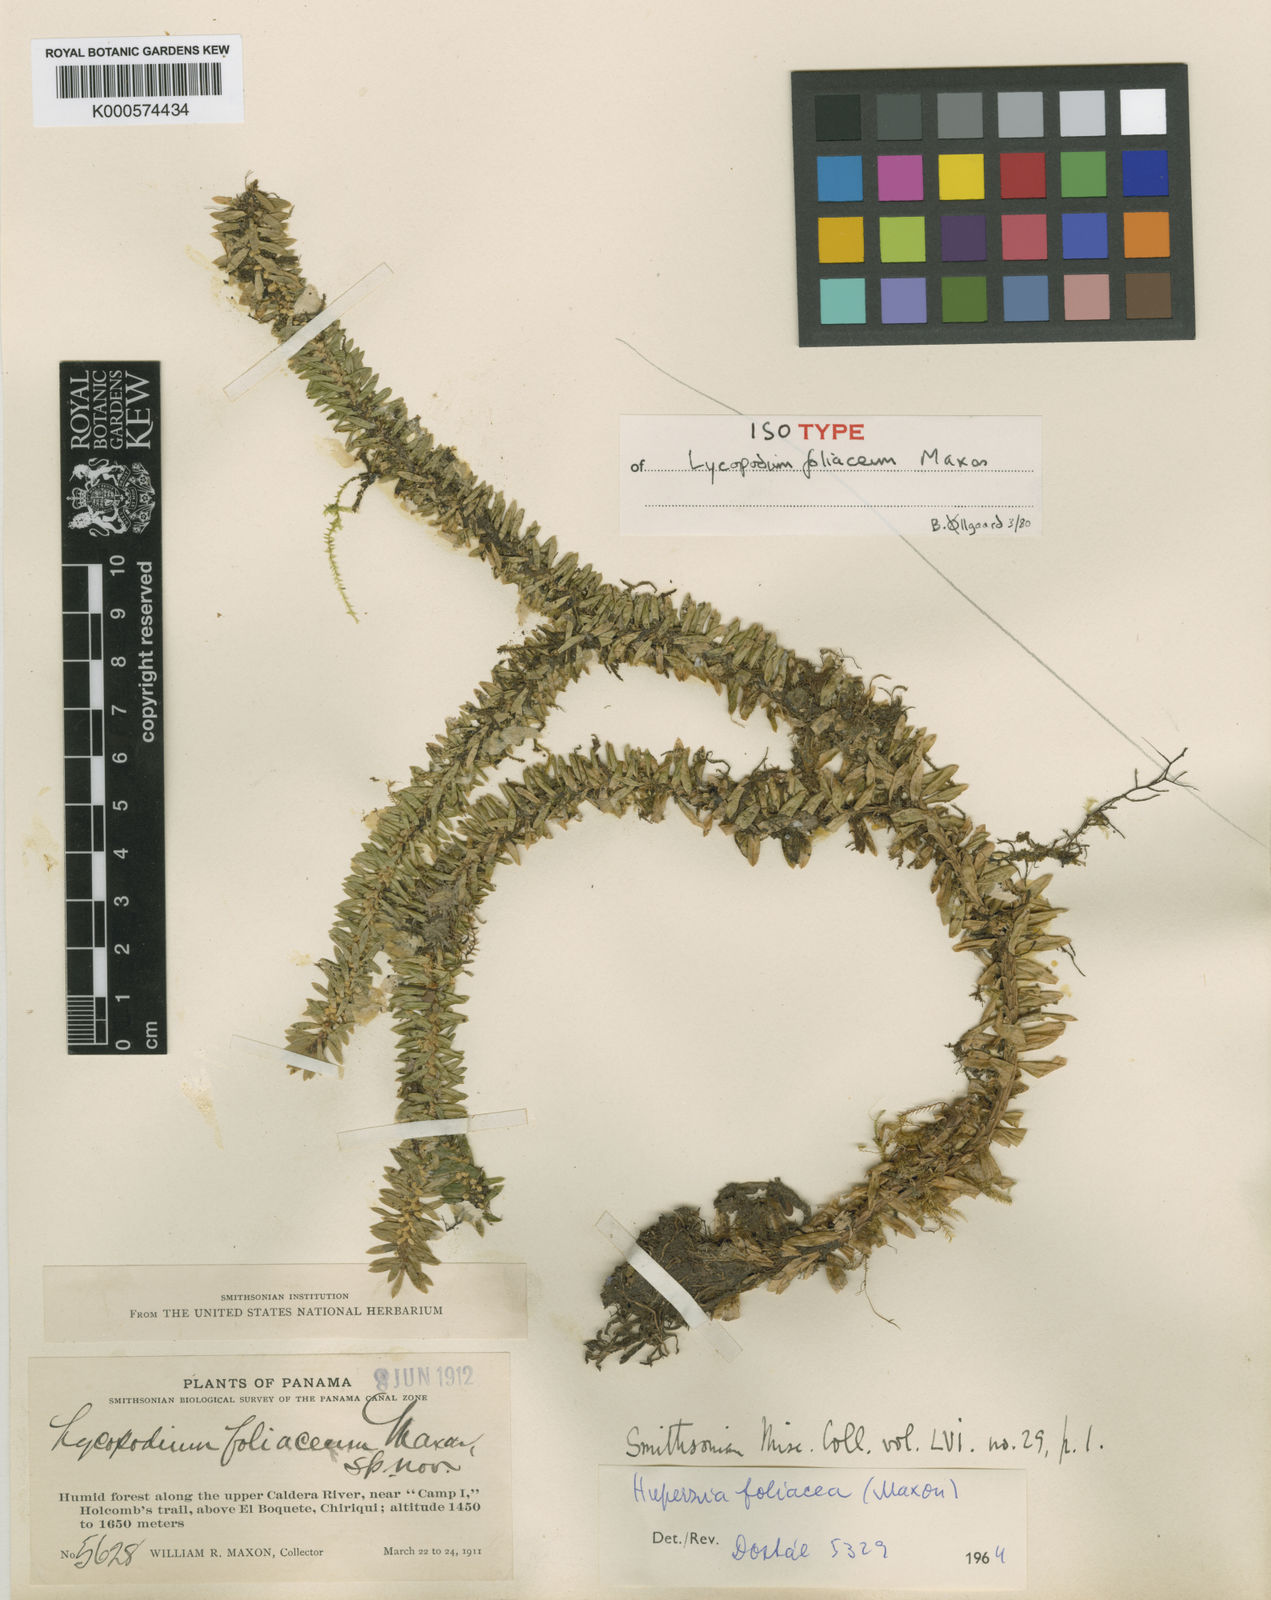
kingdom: Plantae
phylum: Tracheophyta
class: Lycopodiopsida
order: Lycopodiales
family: Lycopodiaceae
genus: Phlegmariurus
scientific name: Phlegmariurus foliaceus
